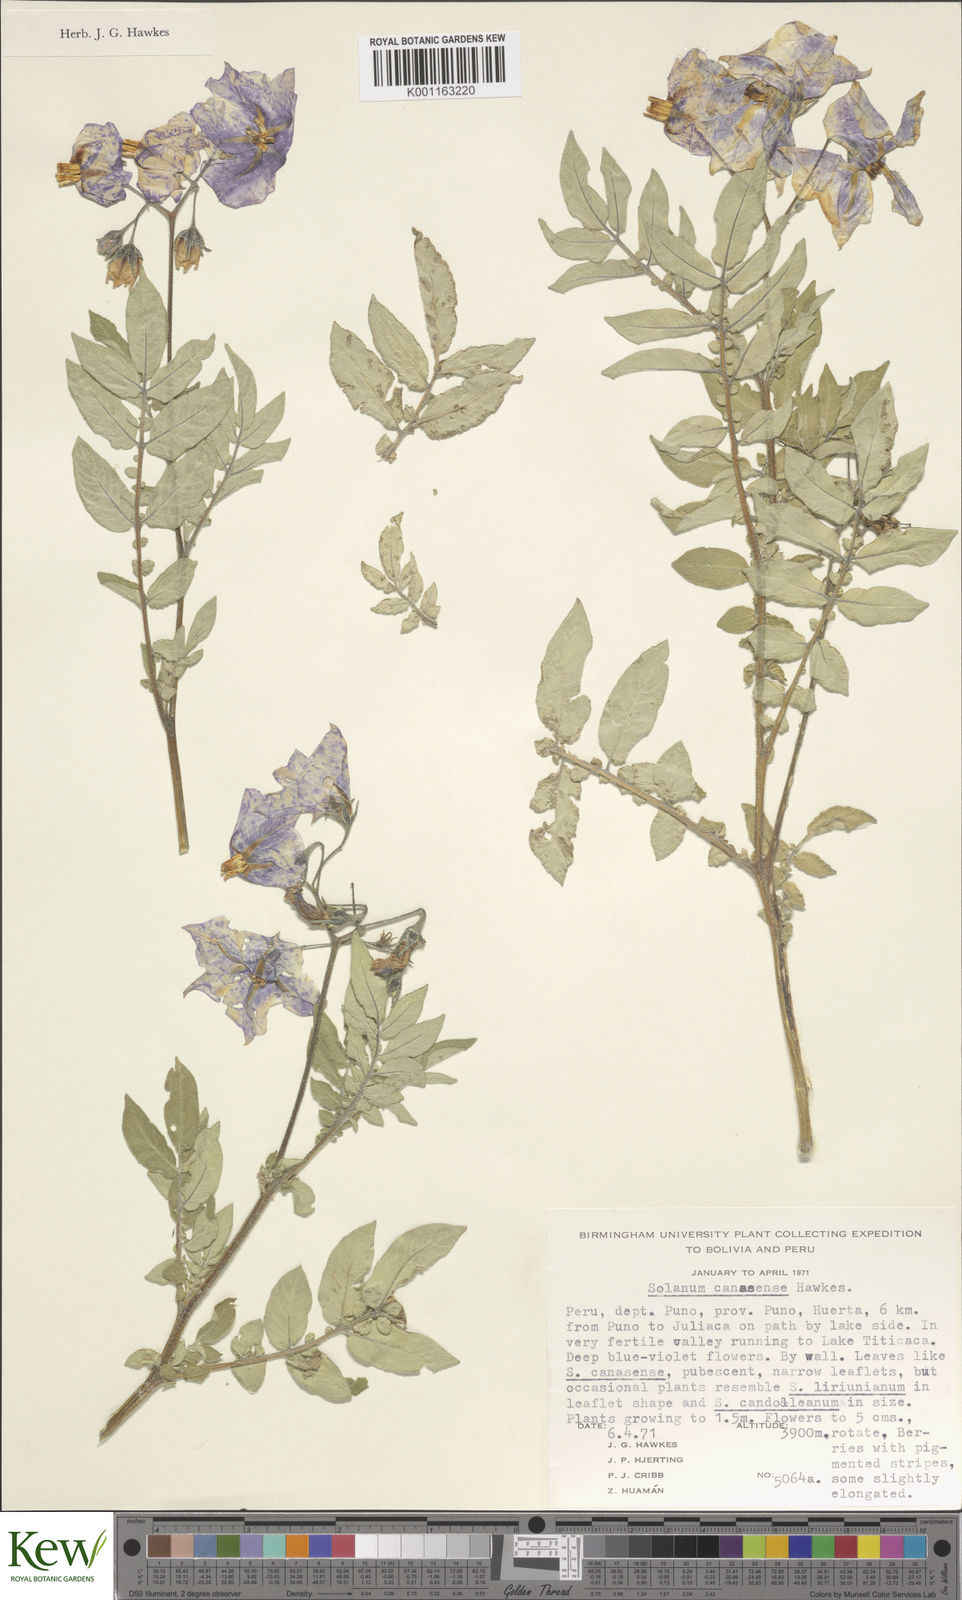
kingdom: Plantae
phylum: Tracheophyta
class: Magnoliopsida
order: Solanales
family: Solanaceae
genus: Solanum
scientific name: Solanum candolleanum
